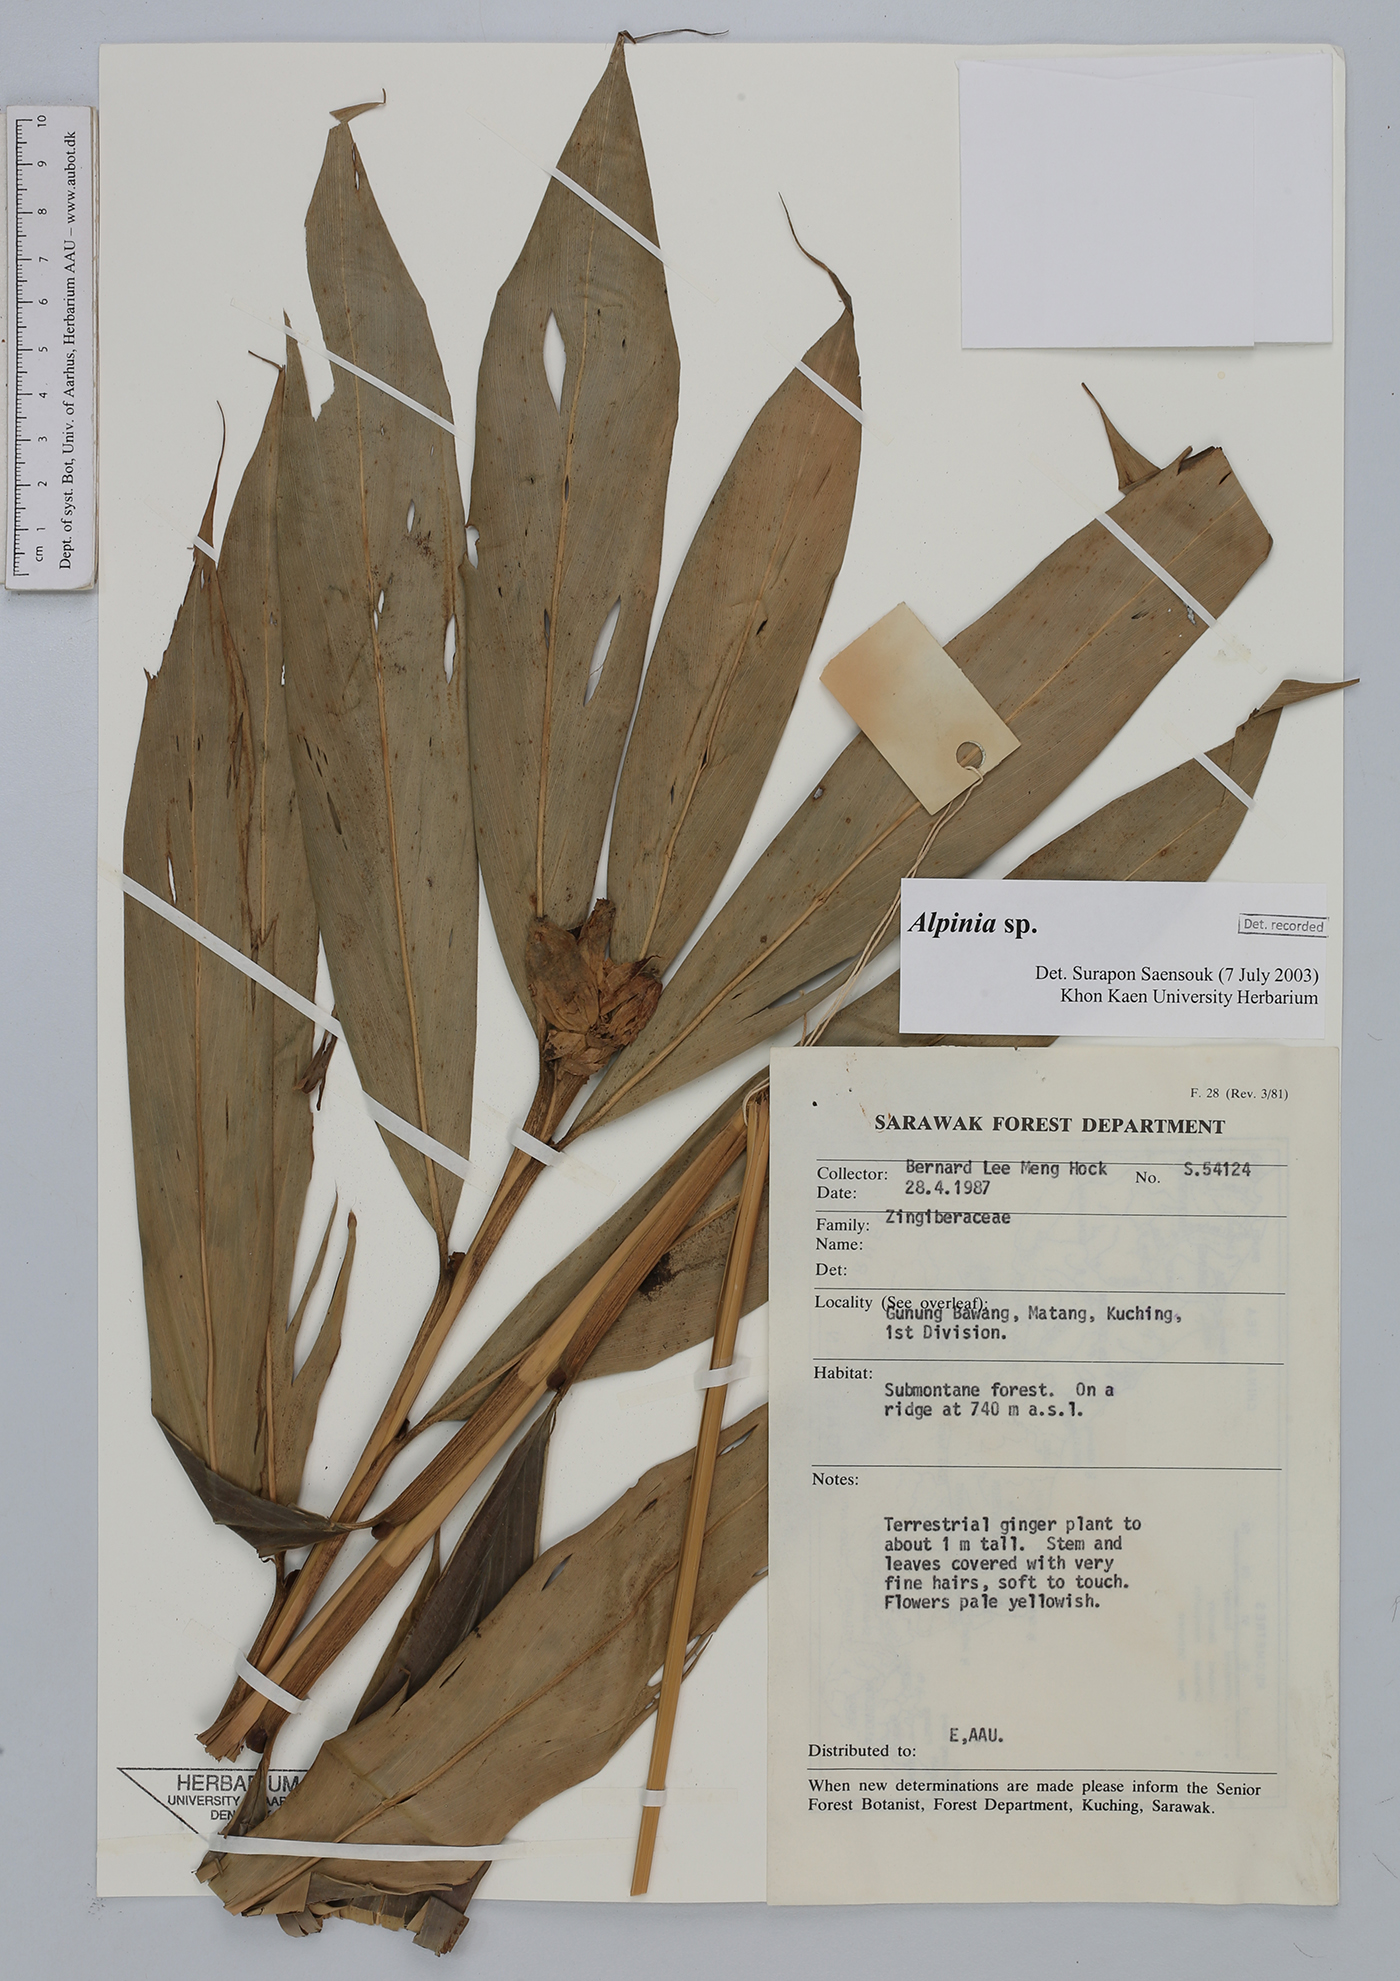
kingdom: Plantae
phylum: Tracheophyta
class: Liliopsida
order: Zingiberales
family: Zingiberaceae
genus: Alpinia
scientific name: Alpinia
